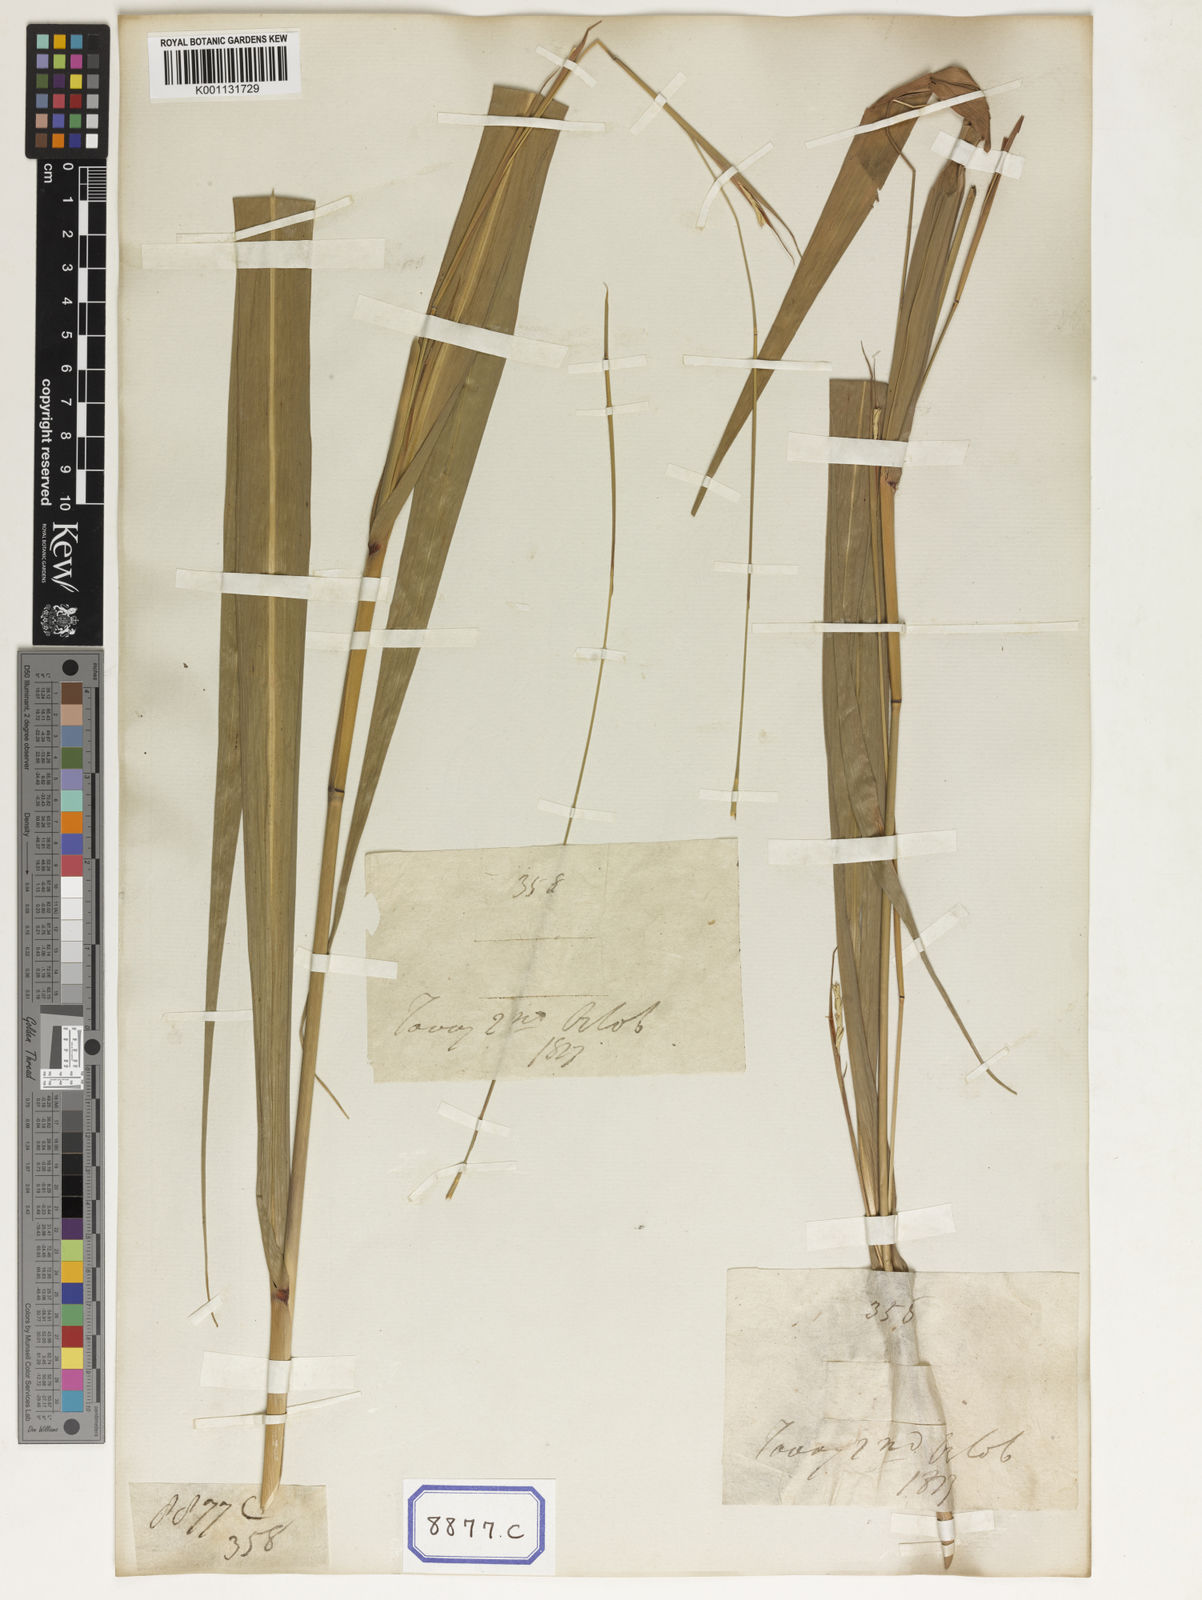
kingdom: Plantae
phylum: Tracheophyta
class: Liliopsida
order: Poales
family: Poaceae
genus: Rottboellia
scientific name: Rottboellia
